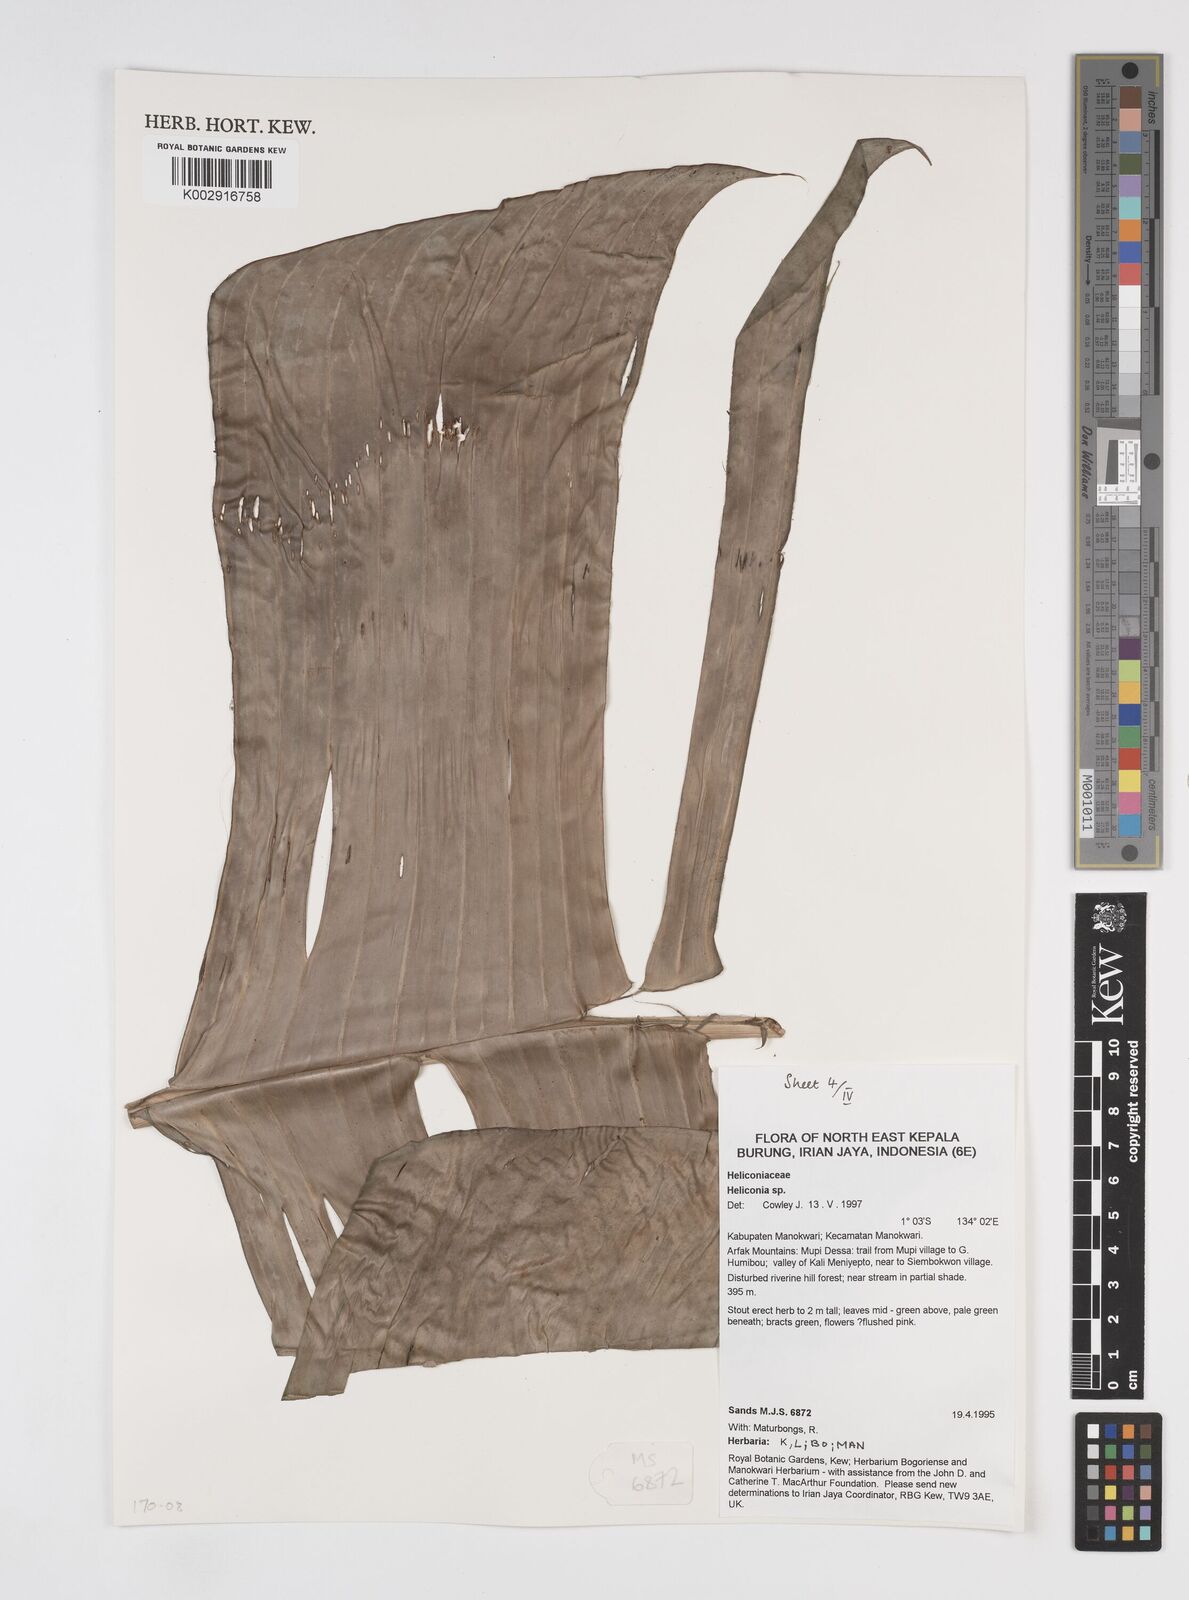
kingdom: Plantae
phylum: Tracheophyta
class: Liliopsida
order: Zingiberales
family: Heliconiaceae
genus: Heliconia
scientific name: Heliconia
